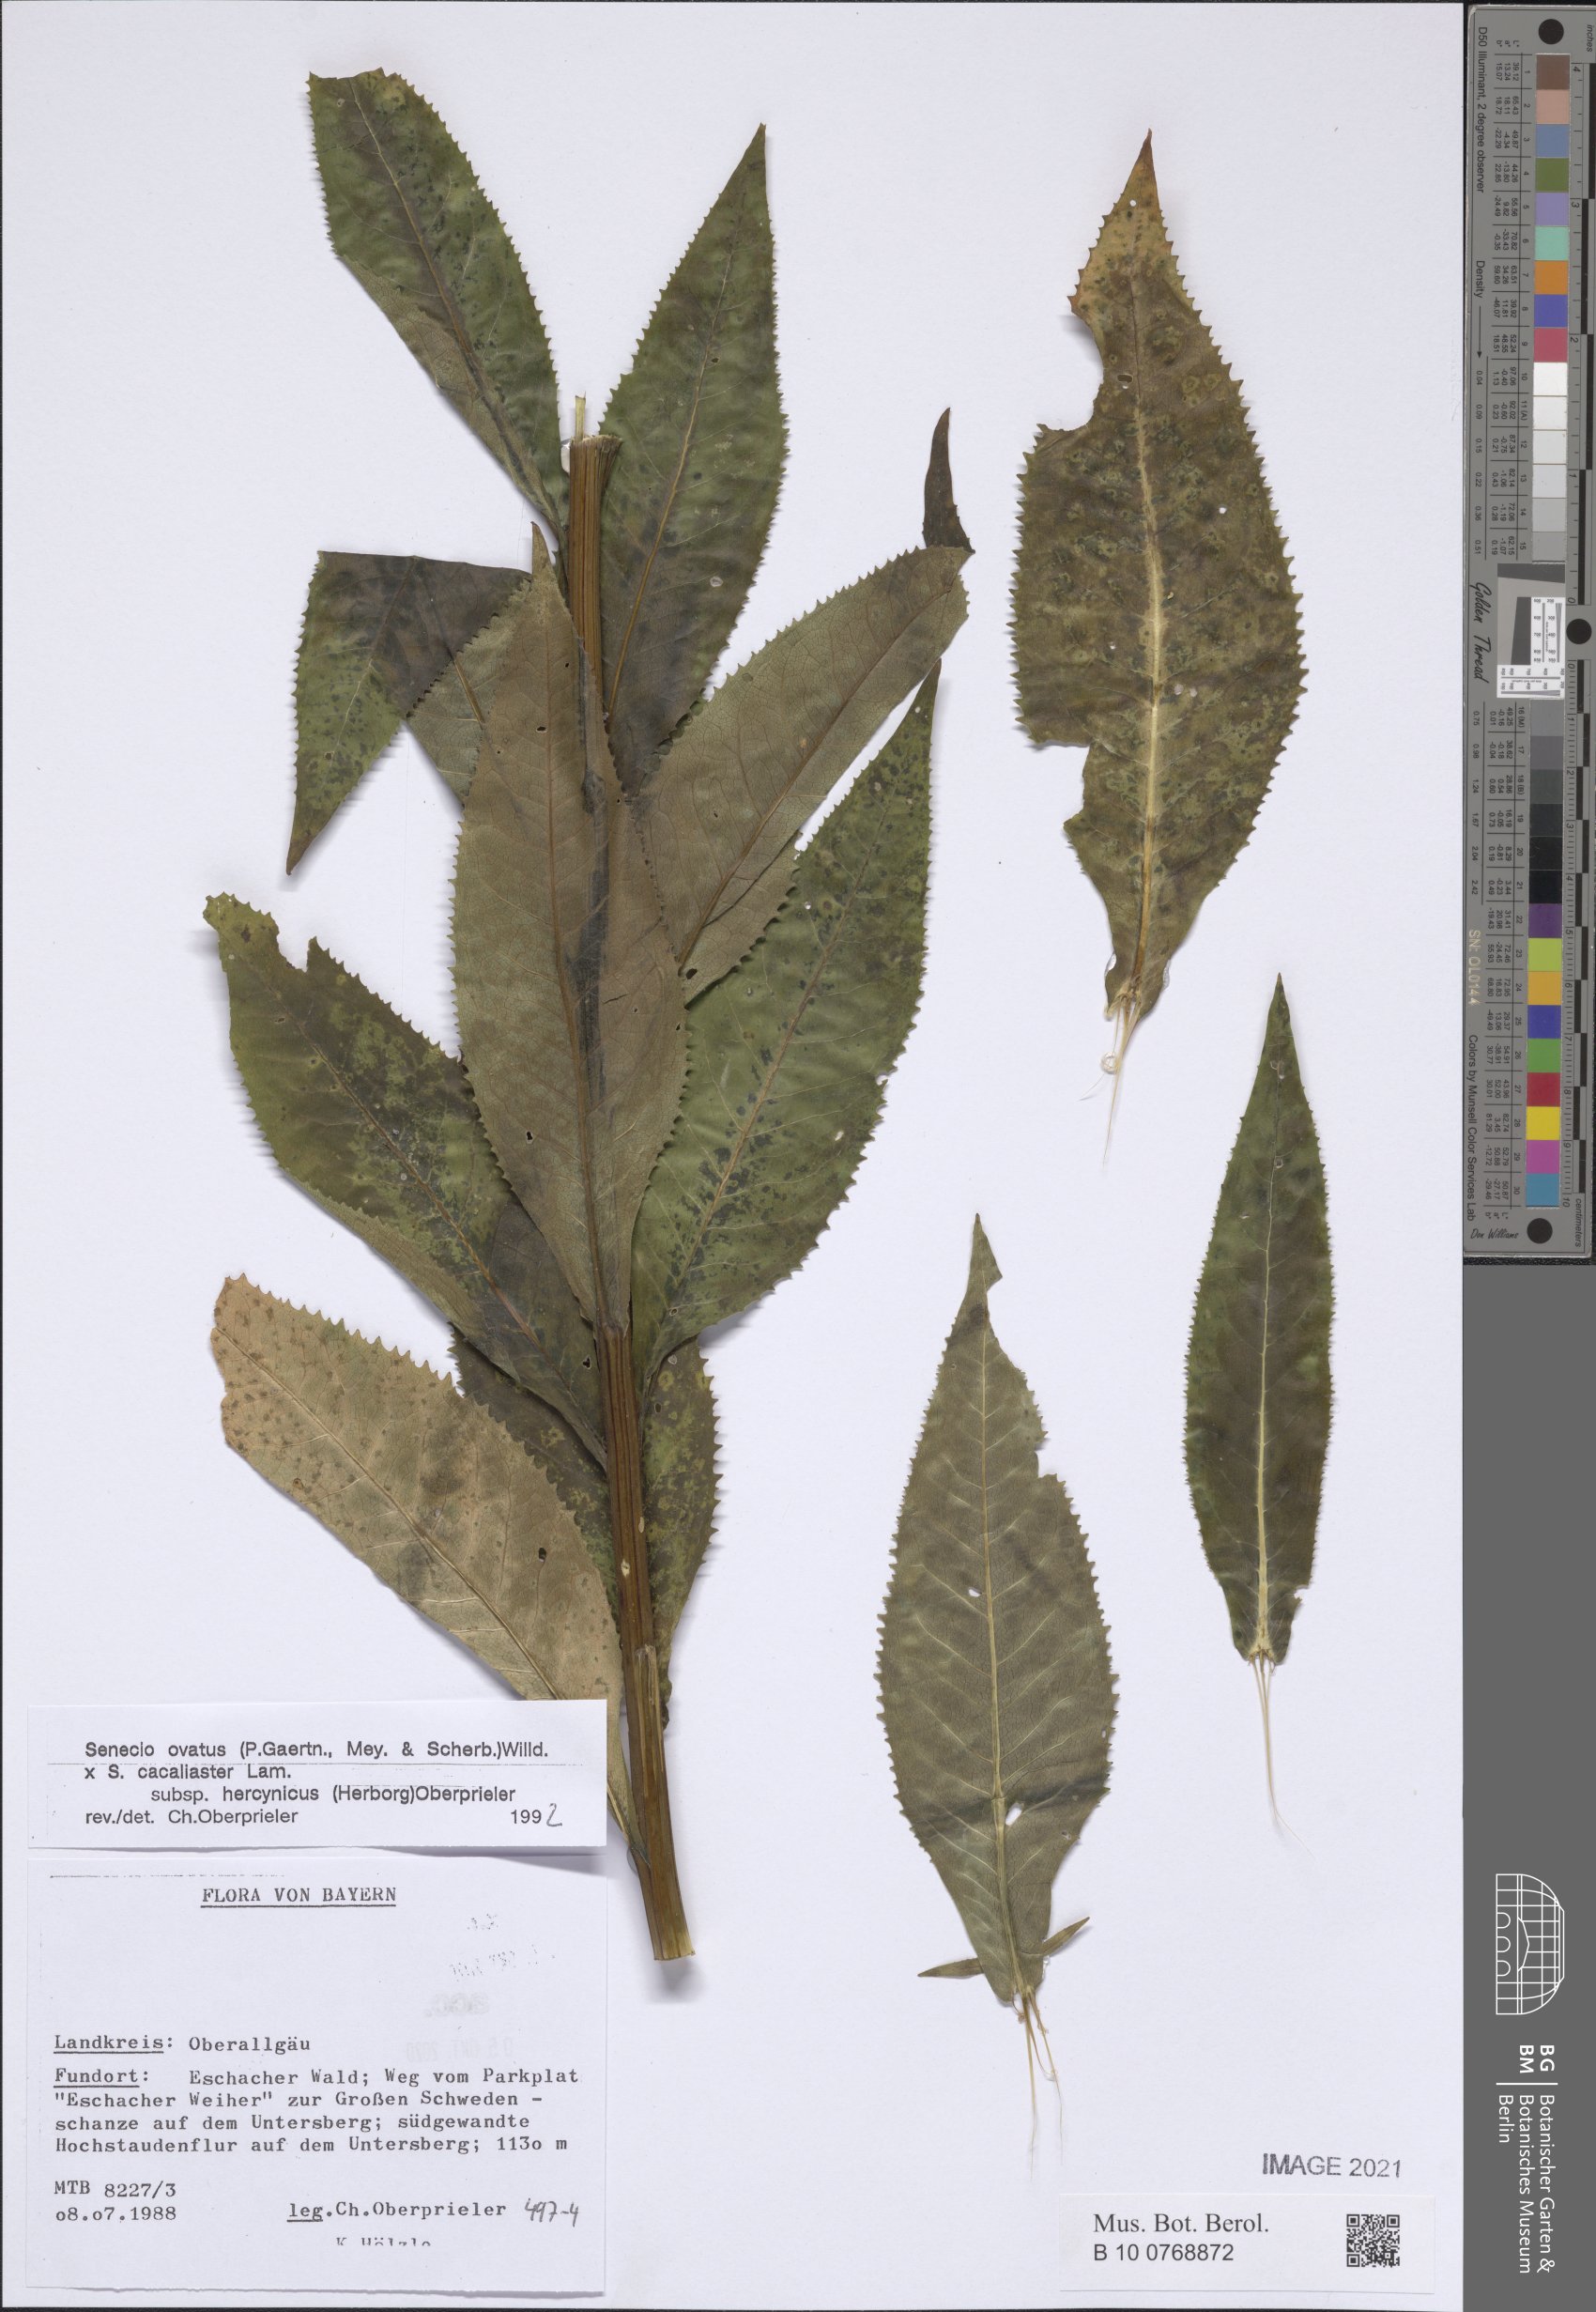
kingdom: Plantae
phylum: Tracheophyta
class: Magnoliopsida
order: Asterales
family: Asteraceae
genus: Senecio
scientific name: Senecio ovatus
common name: Wood ragwort
